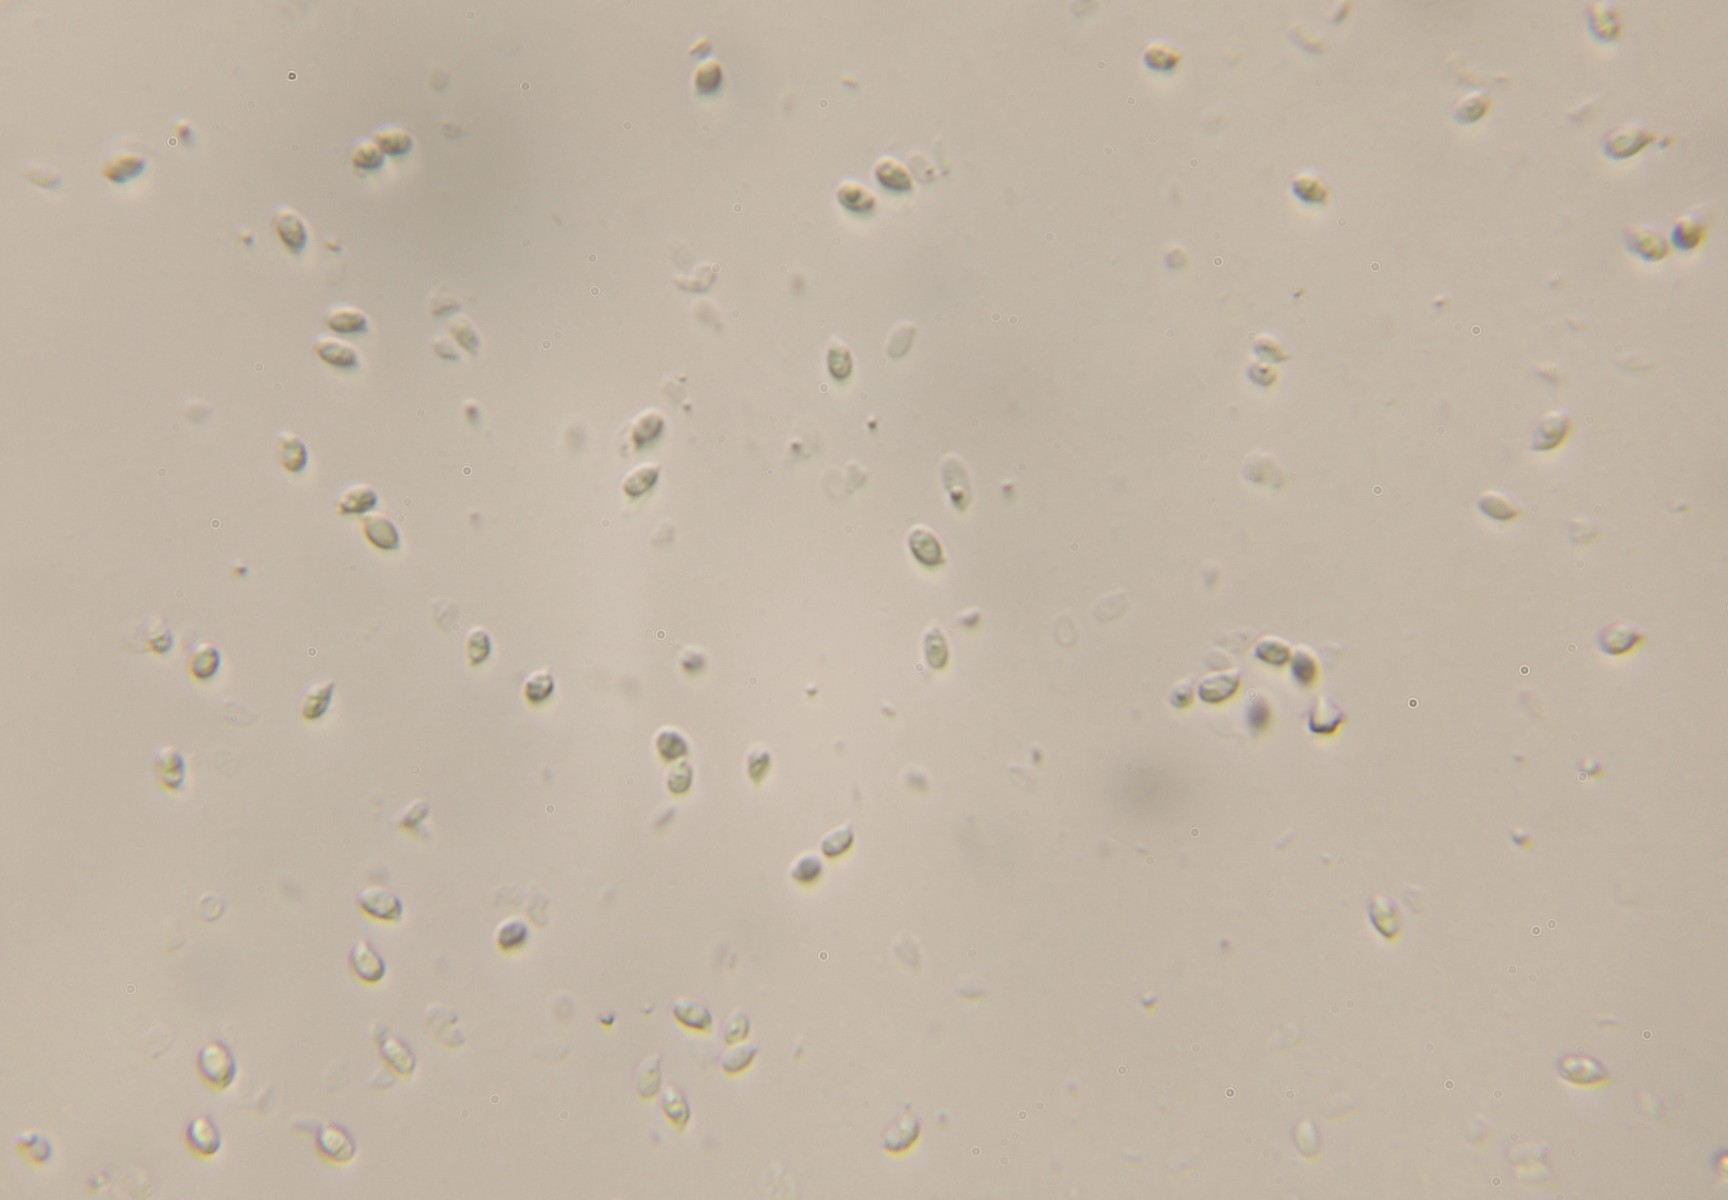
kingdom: Fungi
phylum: Basidiomycota
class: Agaricomycetes
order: Agaricales
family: Tricholomataceae
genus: Clitocybe
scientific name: Clitocybe
